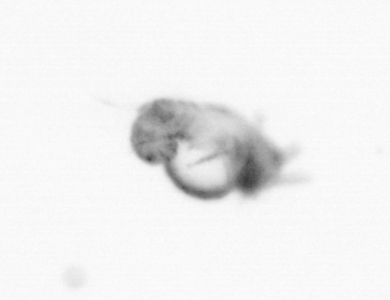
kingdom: Animalia
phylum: Annelida
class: Polychaeta
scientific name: Polychaeta
